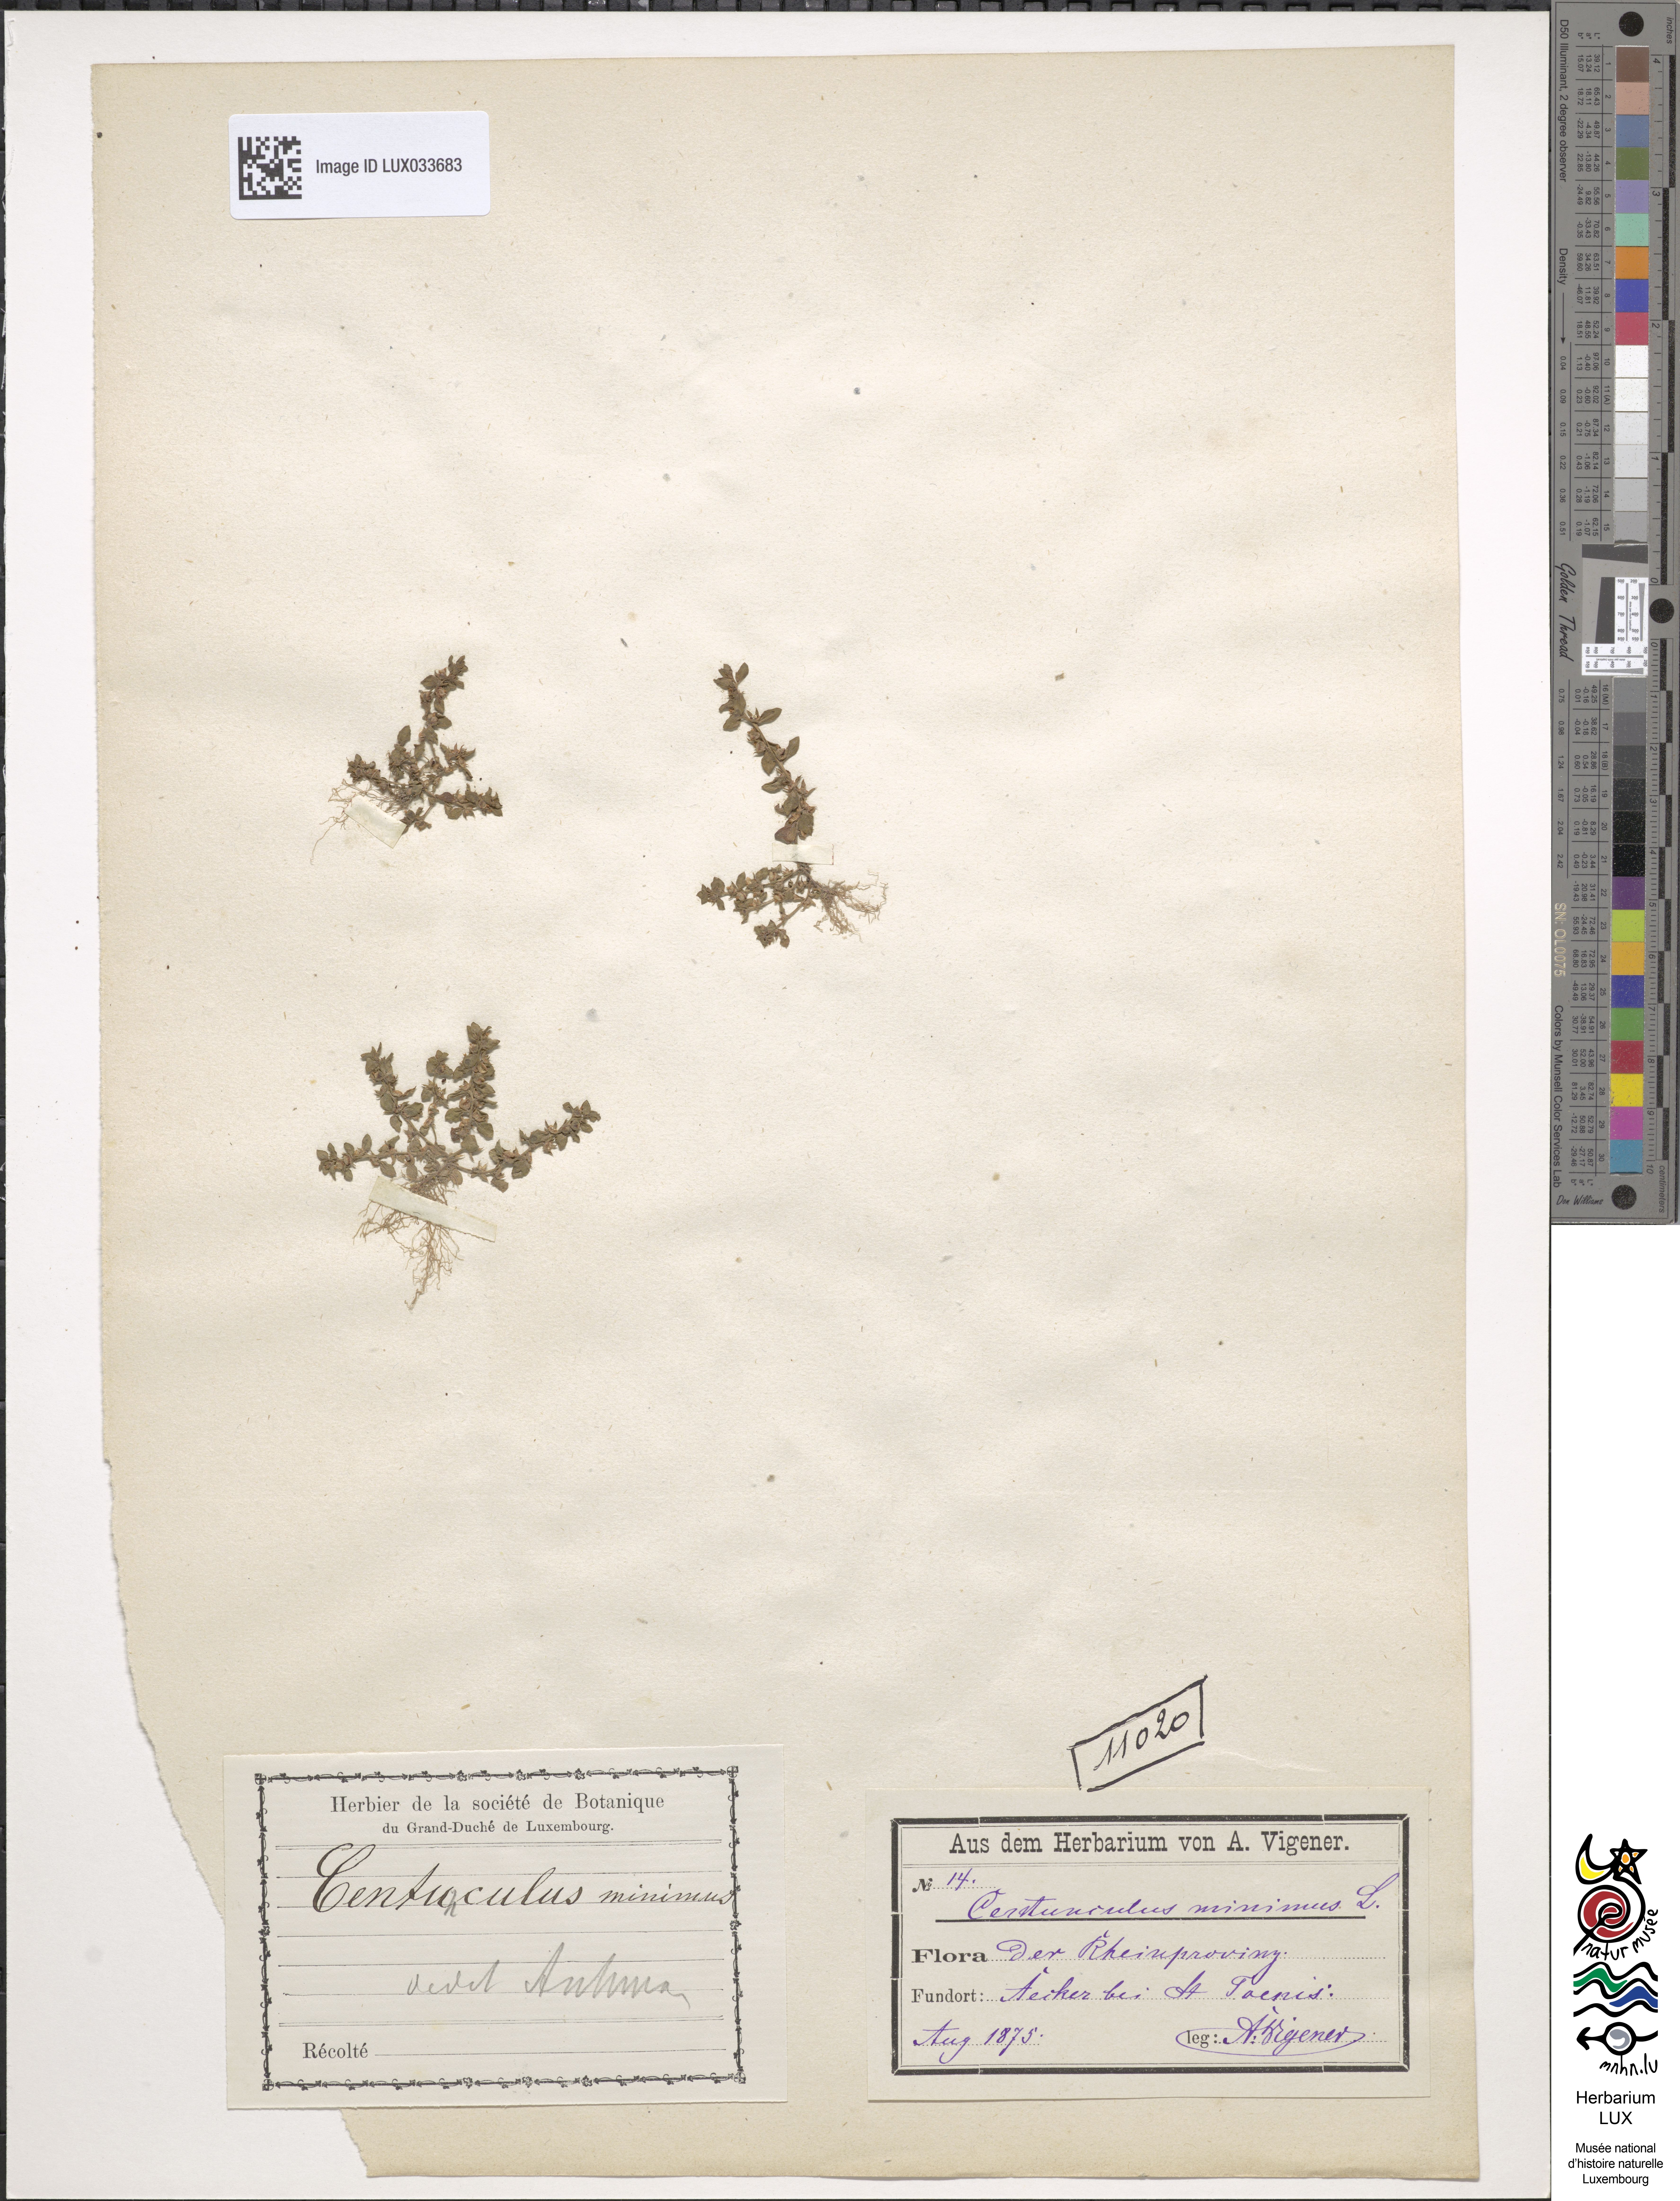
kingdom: Plantae
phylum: Tracheophyta
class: Magnoliopsida
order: Ericales
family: Primulaceae
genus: Lysimachia
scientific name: Lysimachia minima
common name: Chaffweed
